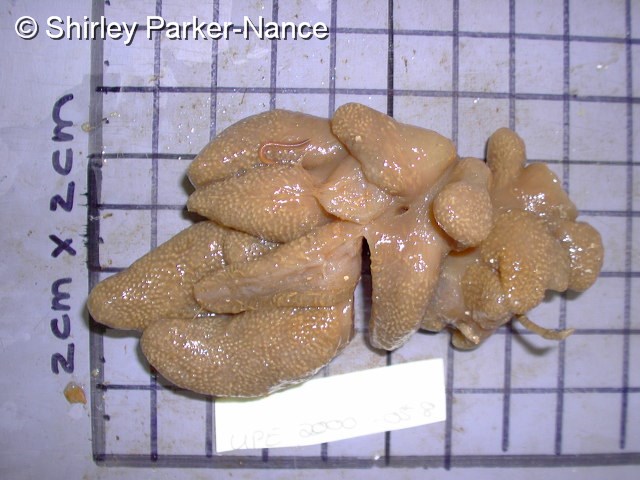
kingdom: Animalia
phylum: Chordata
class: Ascidiacea
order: Aplousobranchia
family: Pseudodistomidae
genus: Pseudodistoma
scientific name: Pseudodistoma
